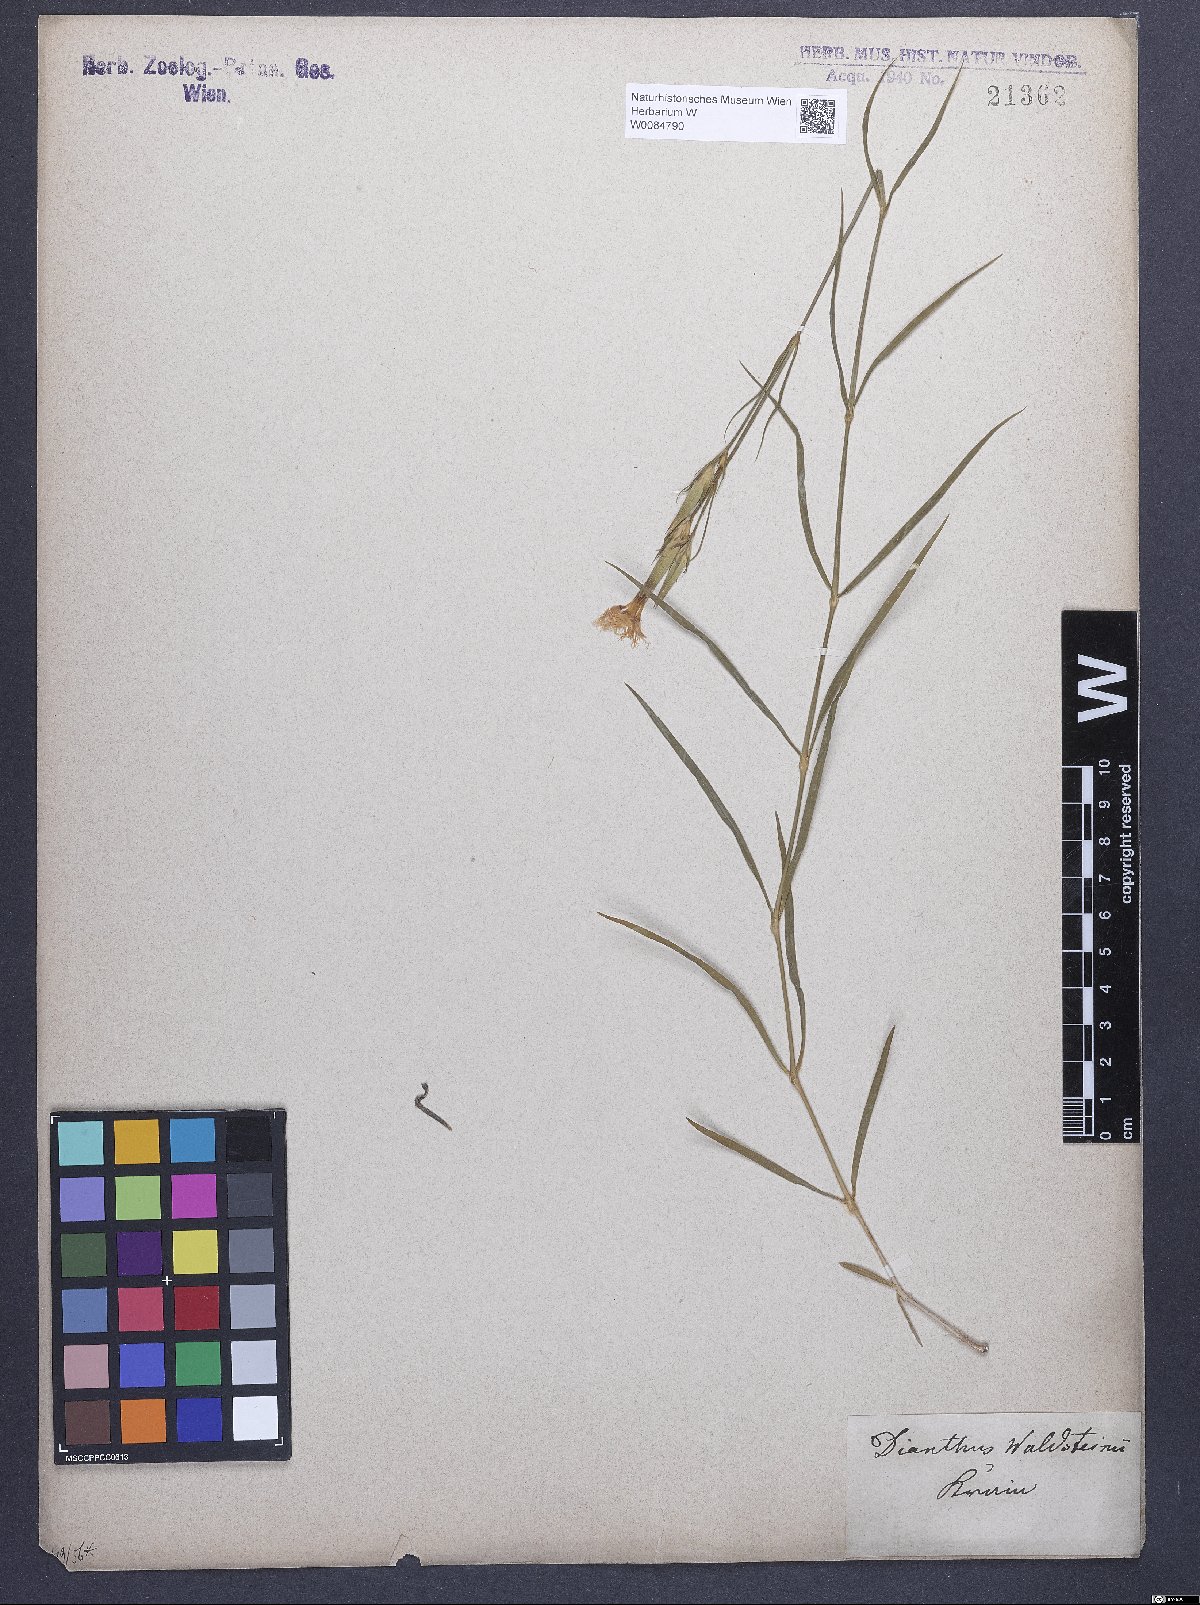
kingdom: Plantae
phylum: Tracheophyta
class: Magnoliopsida
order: Caryophyllales
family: Caryophyllaceae
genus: Dianthus
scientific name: Dianthus monspessulanus
